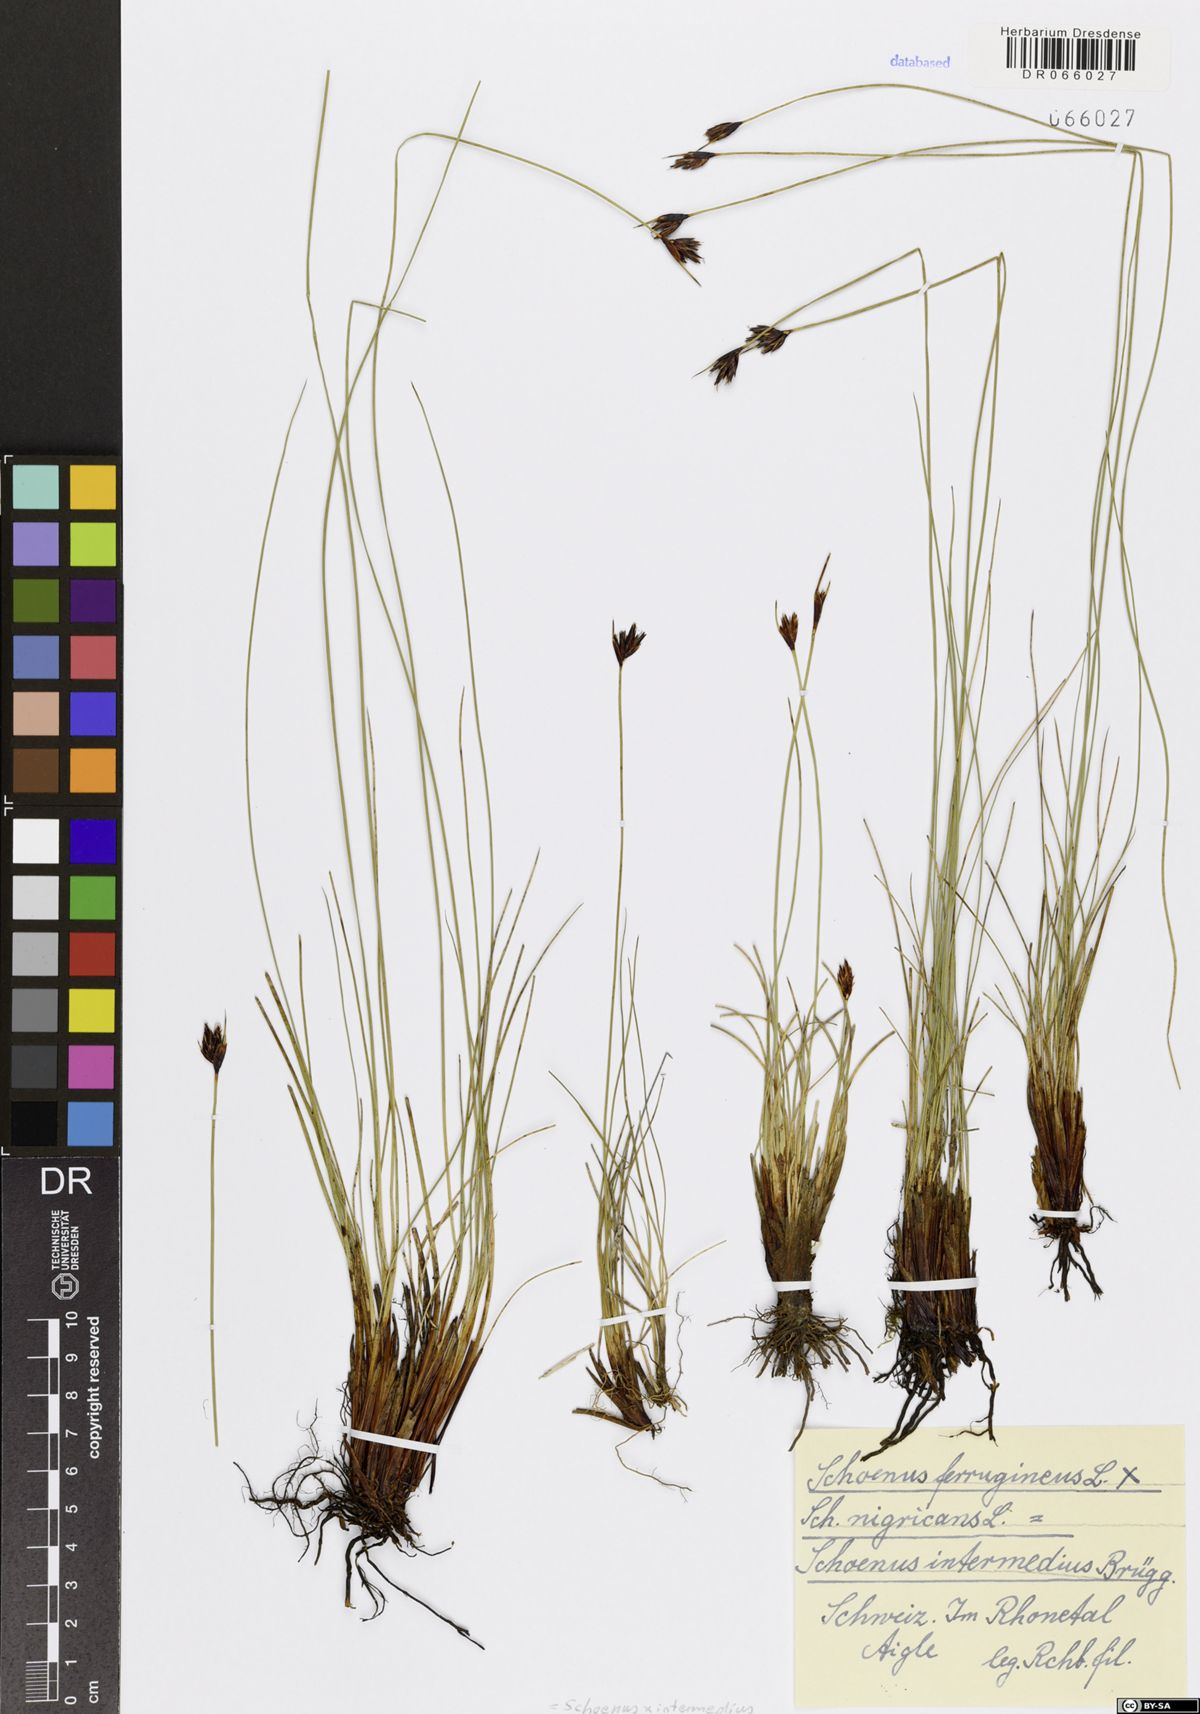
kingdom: Plantae
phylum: Tracheophyta
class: Liliopsida
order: Poales
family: Cyperaceae
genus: Schoenus
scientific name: Schoenus scheuchzeri
